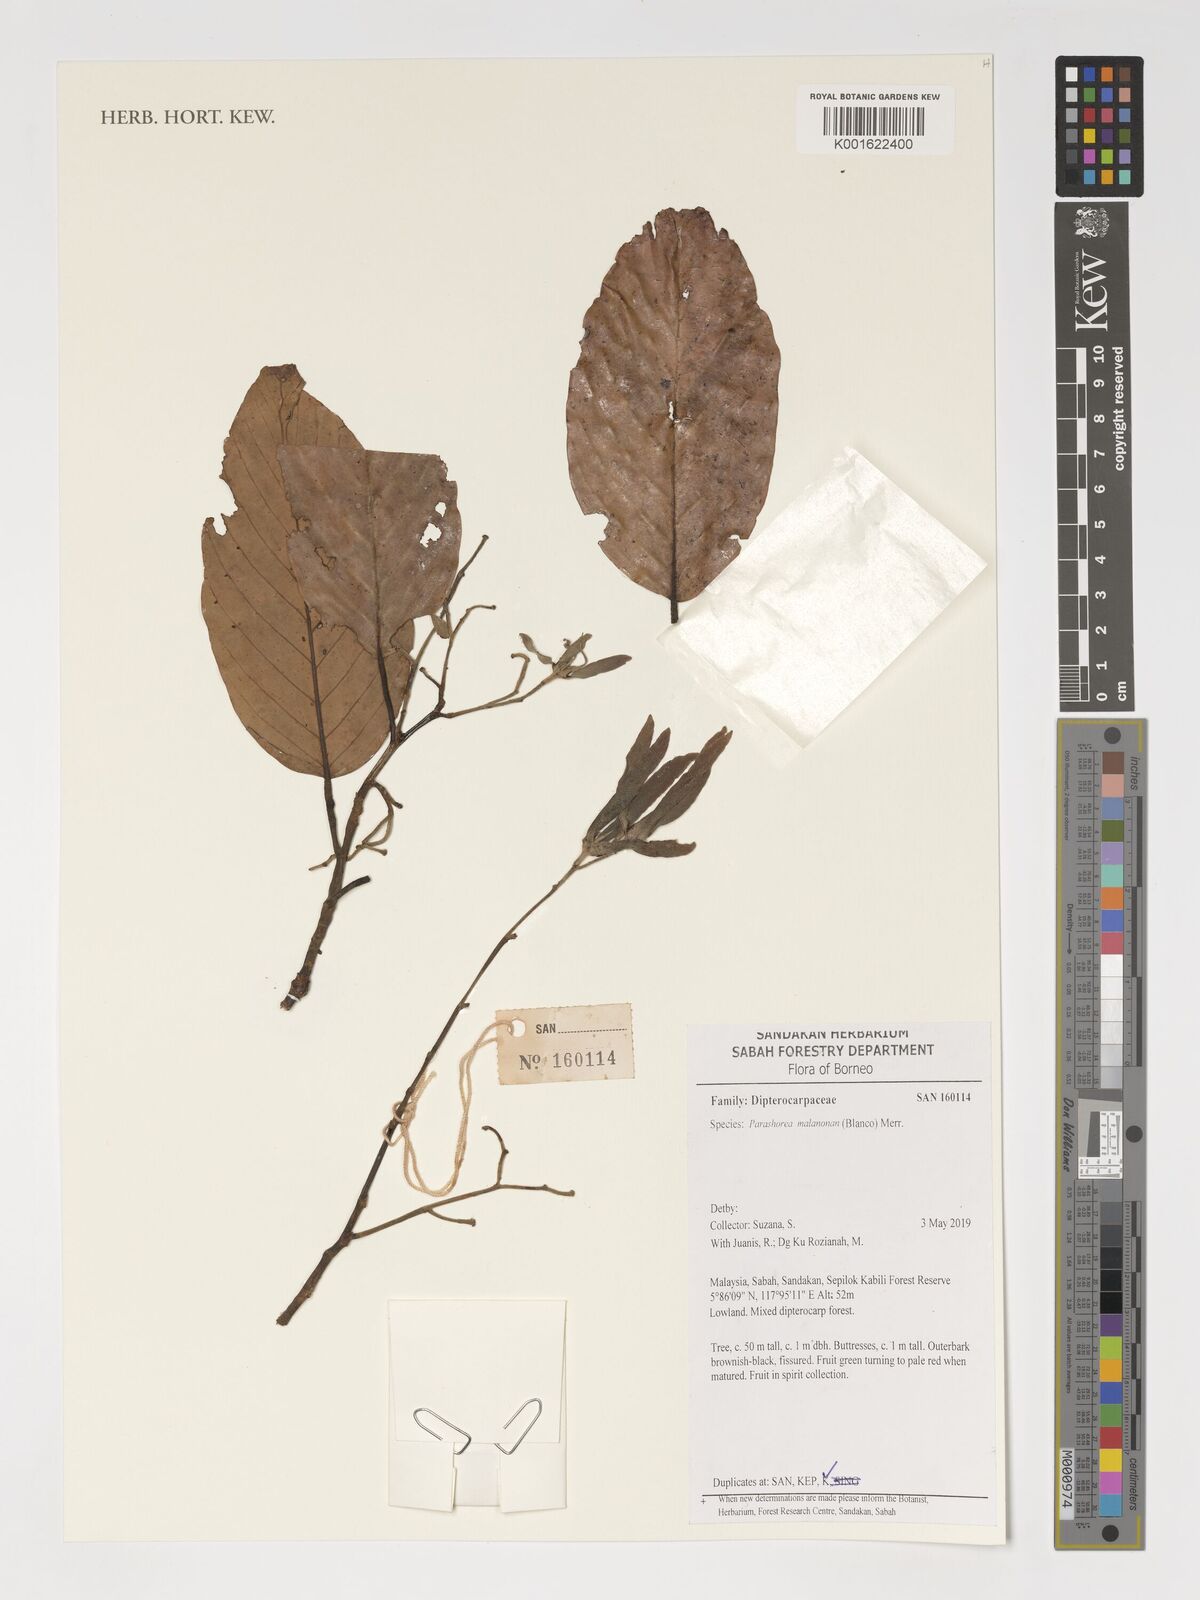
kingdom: Plantae
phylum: Tracheophyta
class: Magnoliopsida
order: Malvales
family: Dipterocarpaceae
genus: Parashorea
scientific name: Parashorea malaanonan
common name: White lauan
